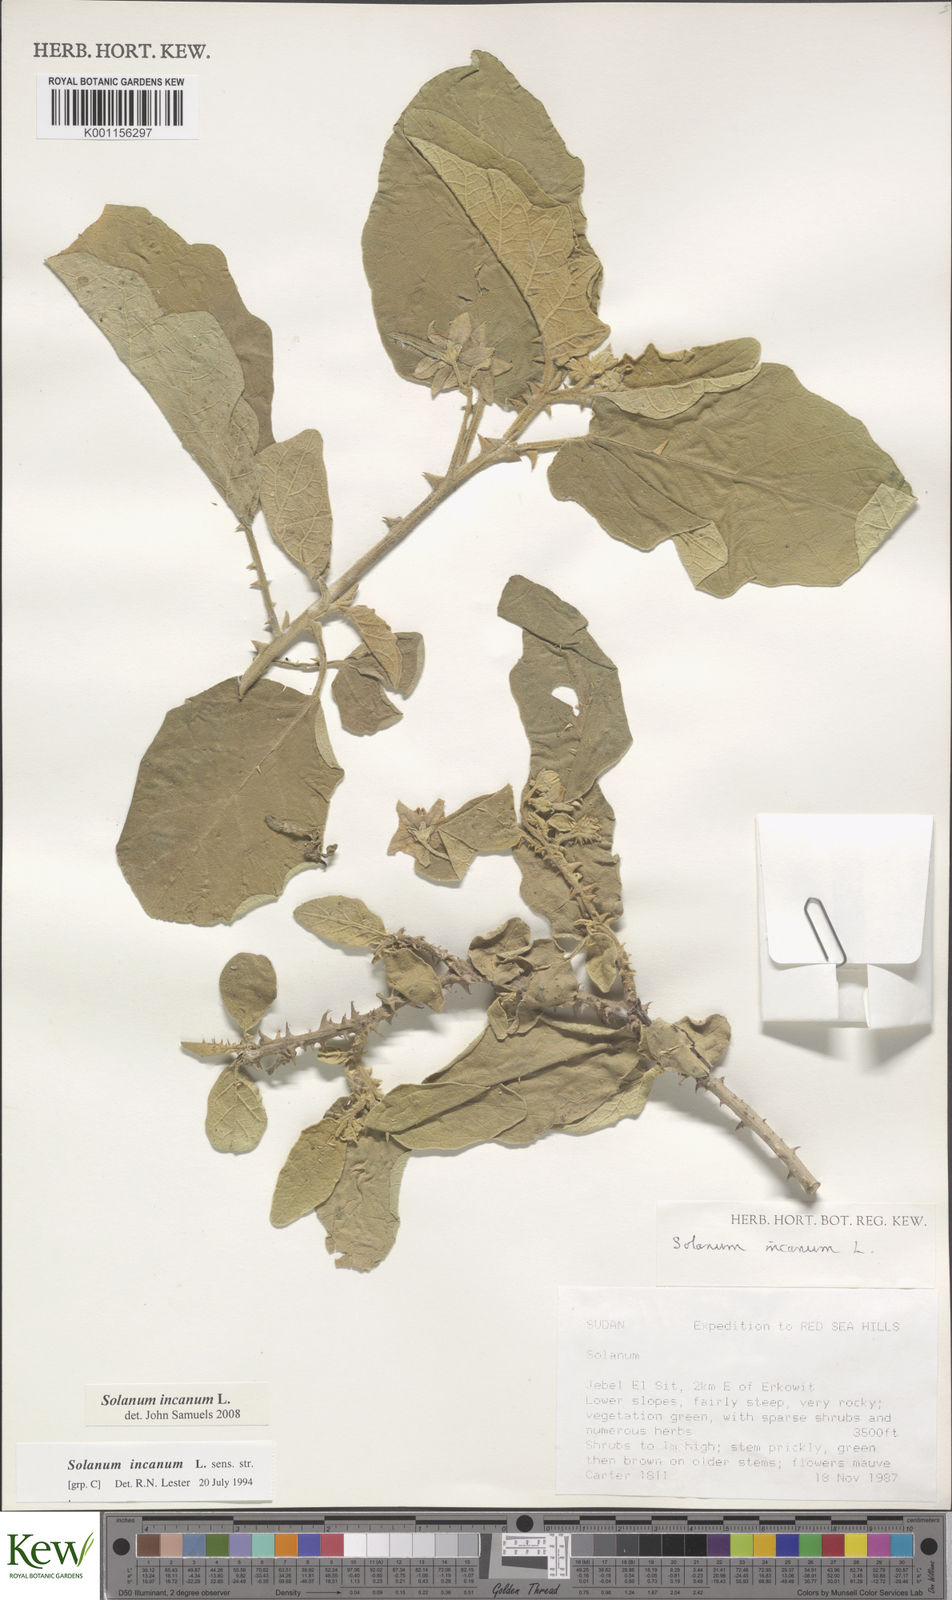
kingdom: Plantae
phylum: Tracheophyta
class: Magnoliopsida
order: Solanales
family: Solanaceae
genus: Solanum
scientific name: Solanum incanum
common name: Bitter apple
